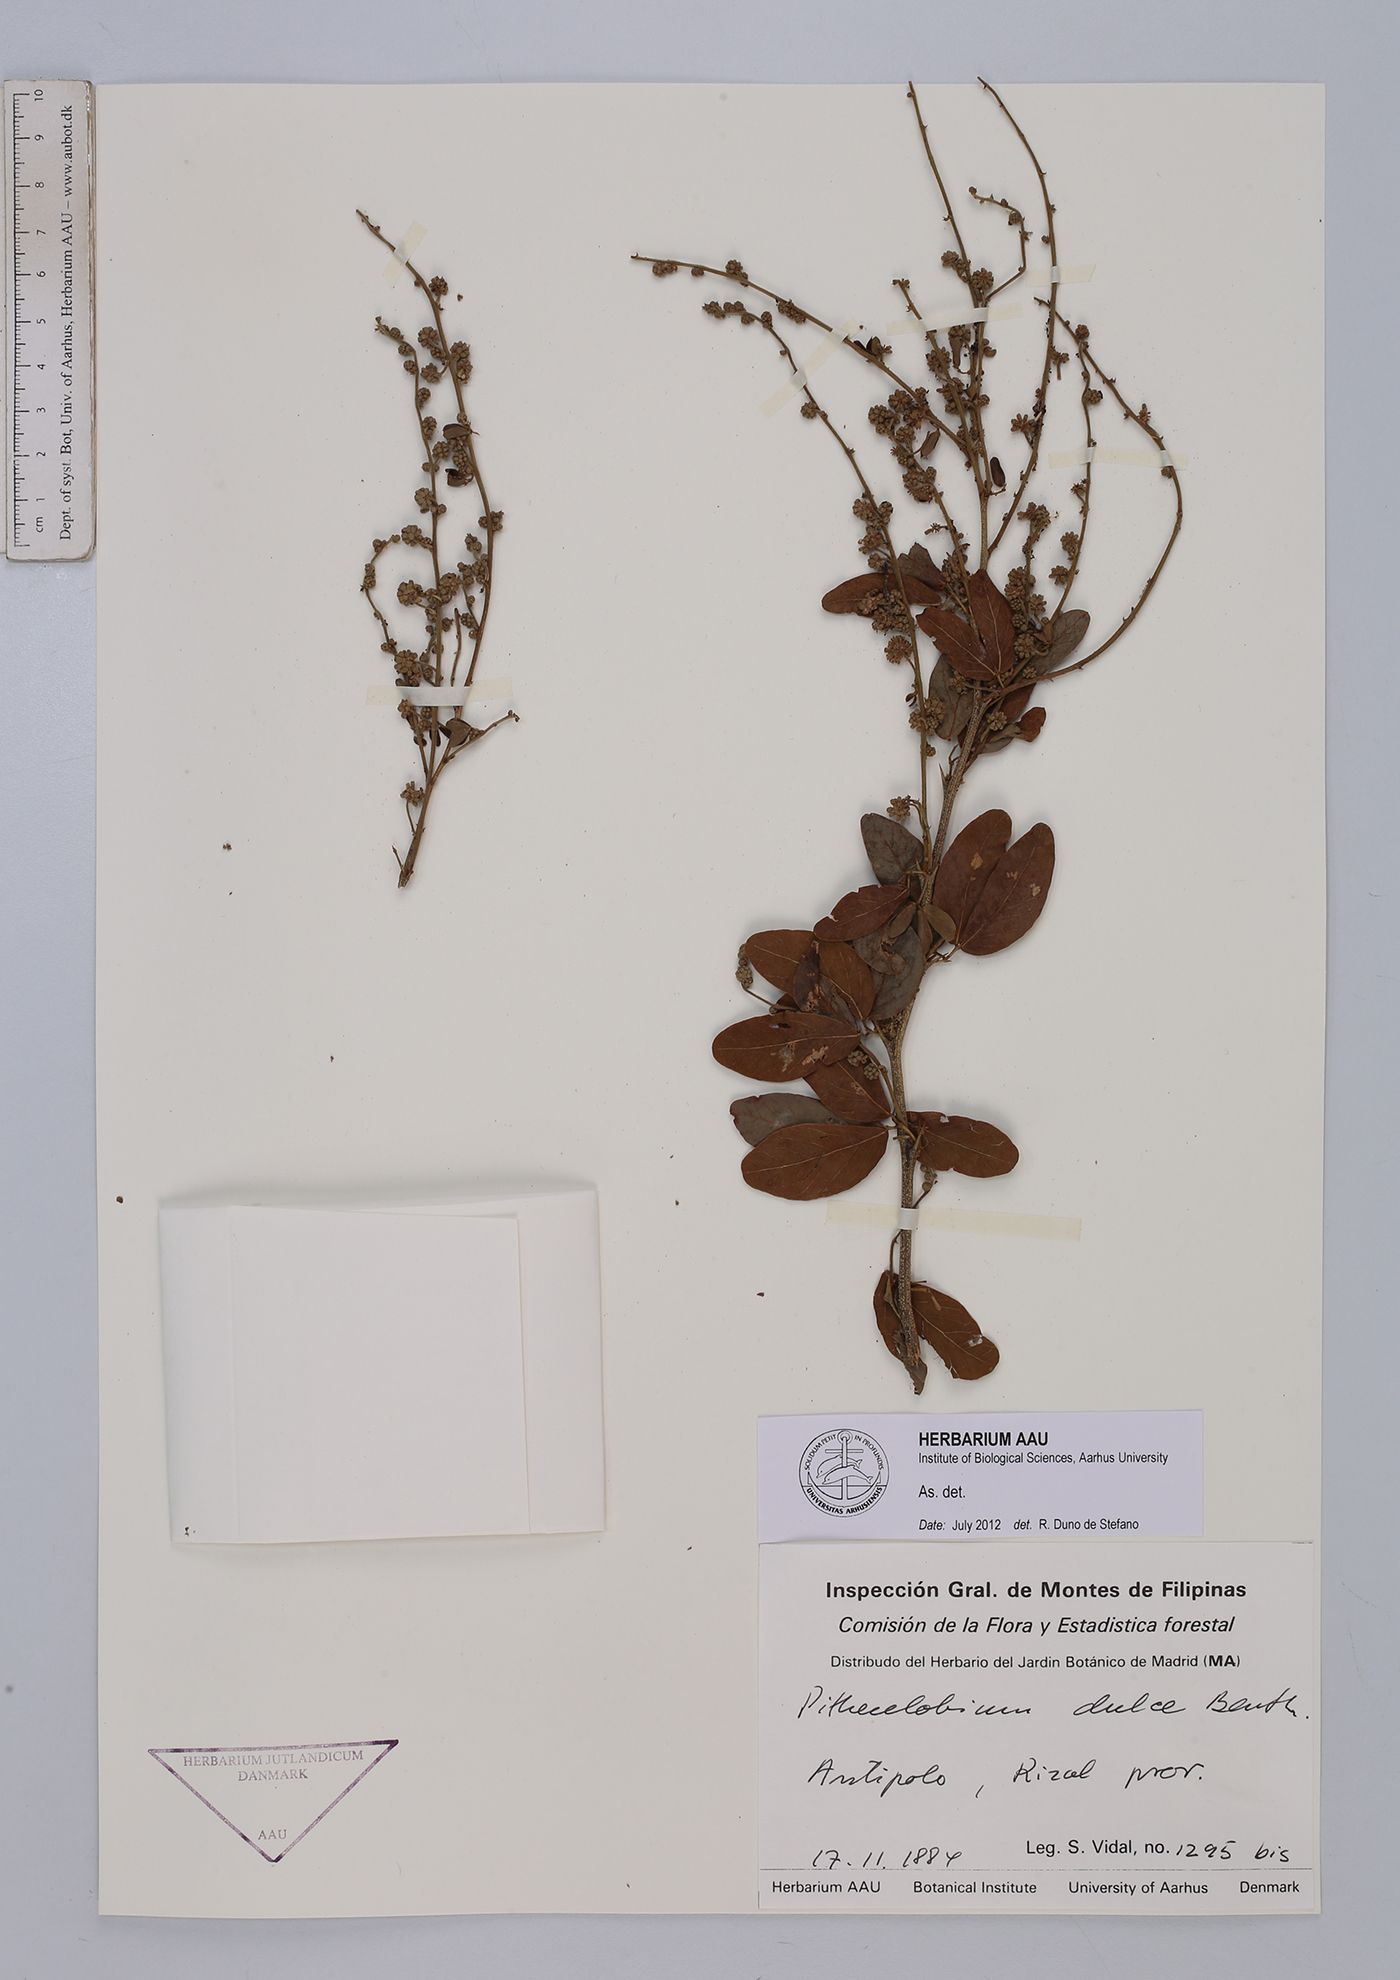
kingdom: Plantae
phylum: Tracheophyta
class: Magnoliopsida
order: Fabales
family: Fabaceae
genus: Pithecellobium
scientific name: Pithecellobium dulce
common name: Monkeypod
